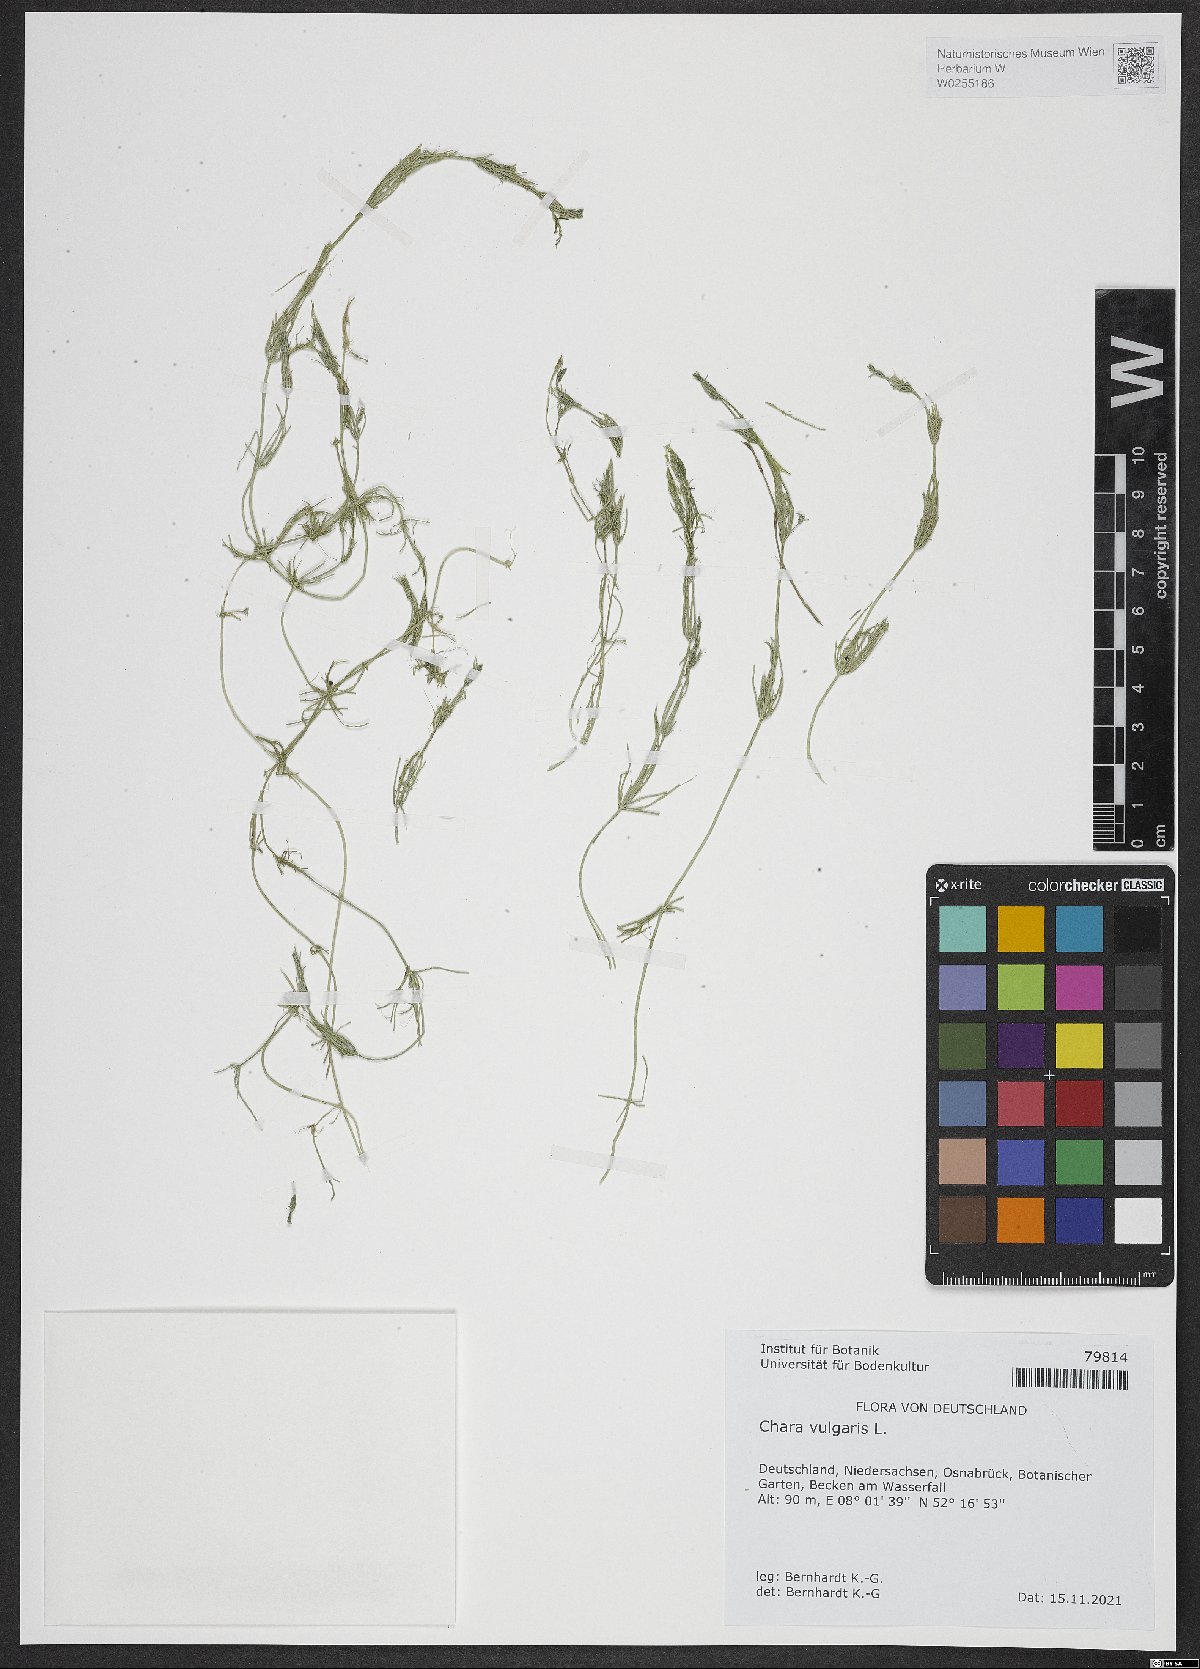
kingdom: Plantae
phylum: Charophyta
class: Charophyceae
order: Charales
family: Characeae
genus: Chara
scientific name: Chara vulgaris
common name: Common stonewort
